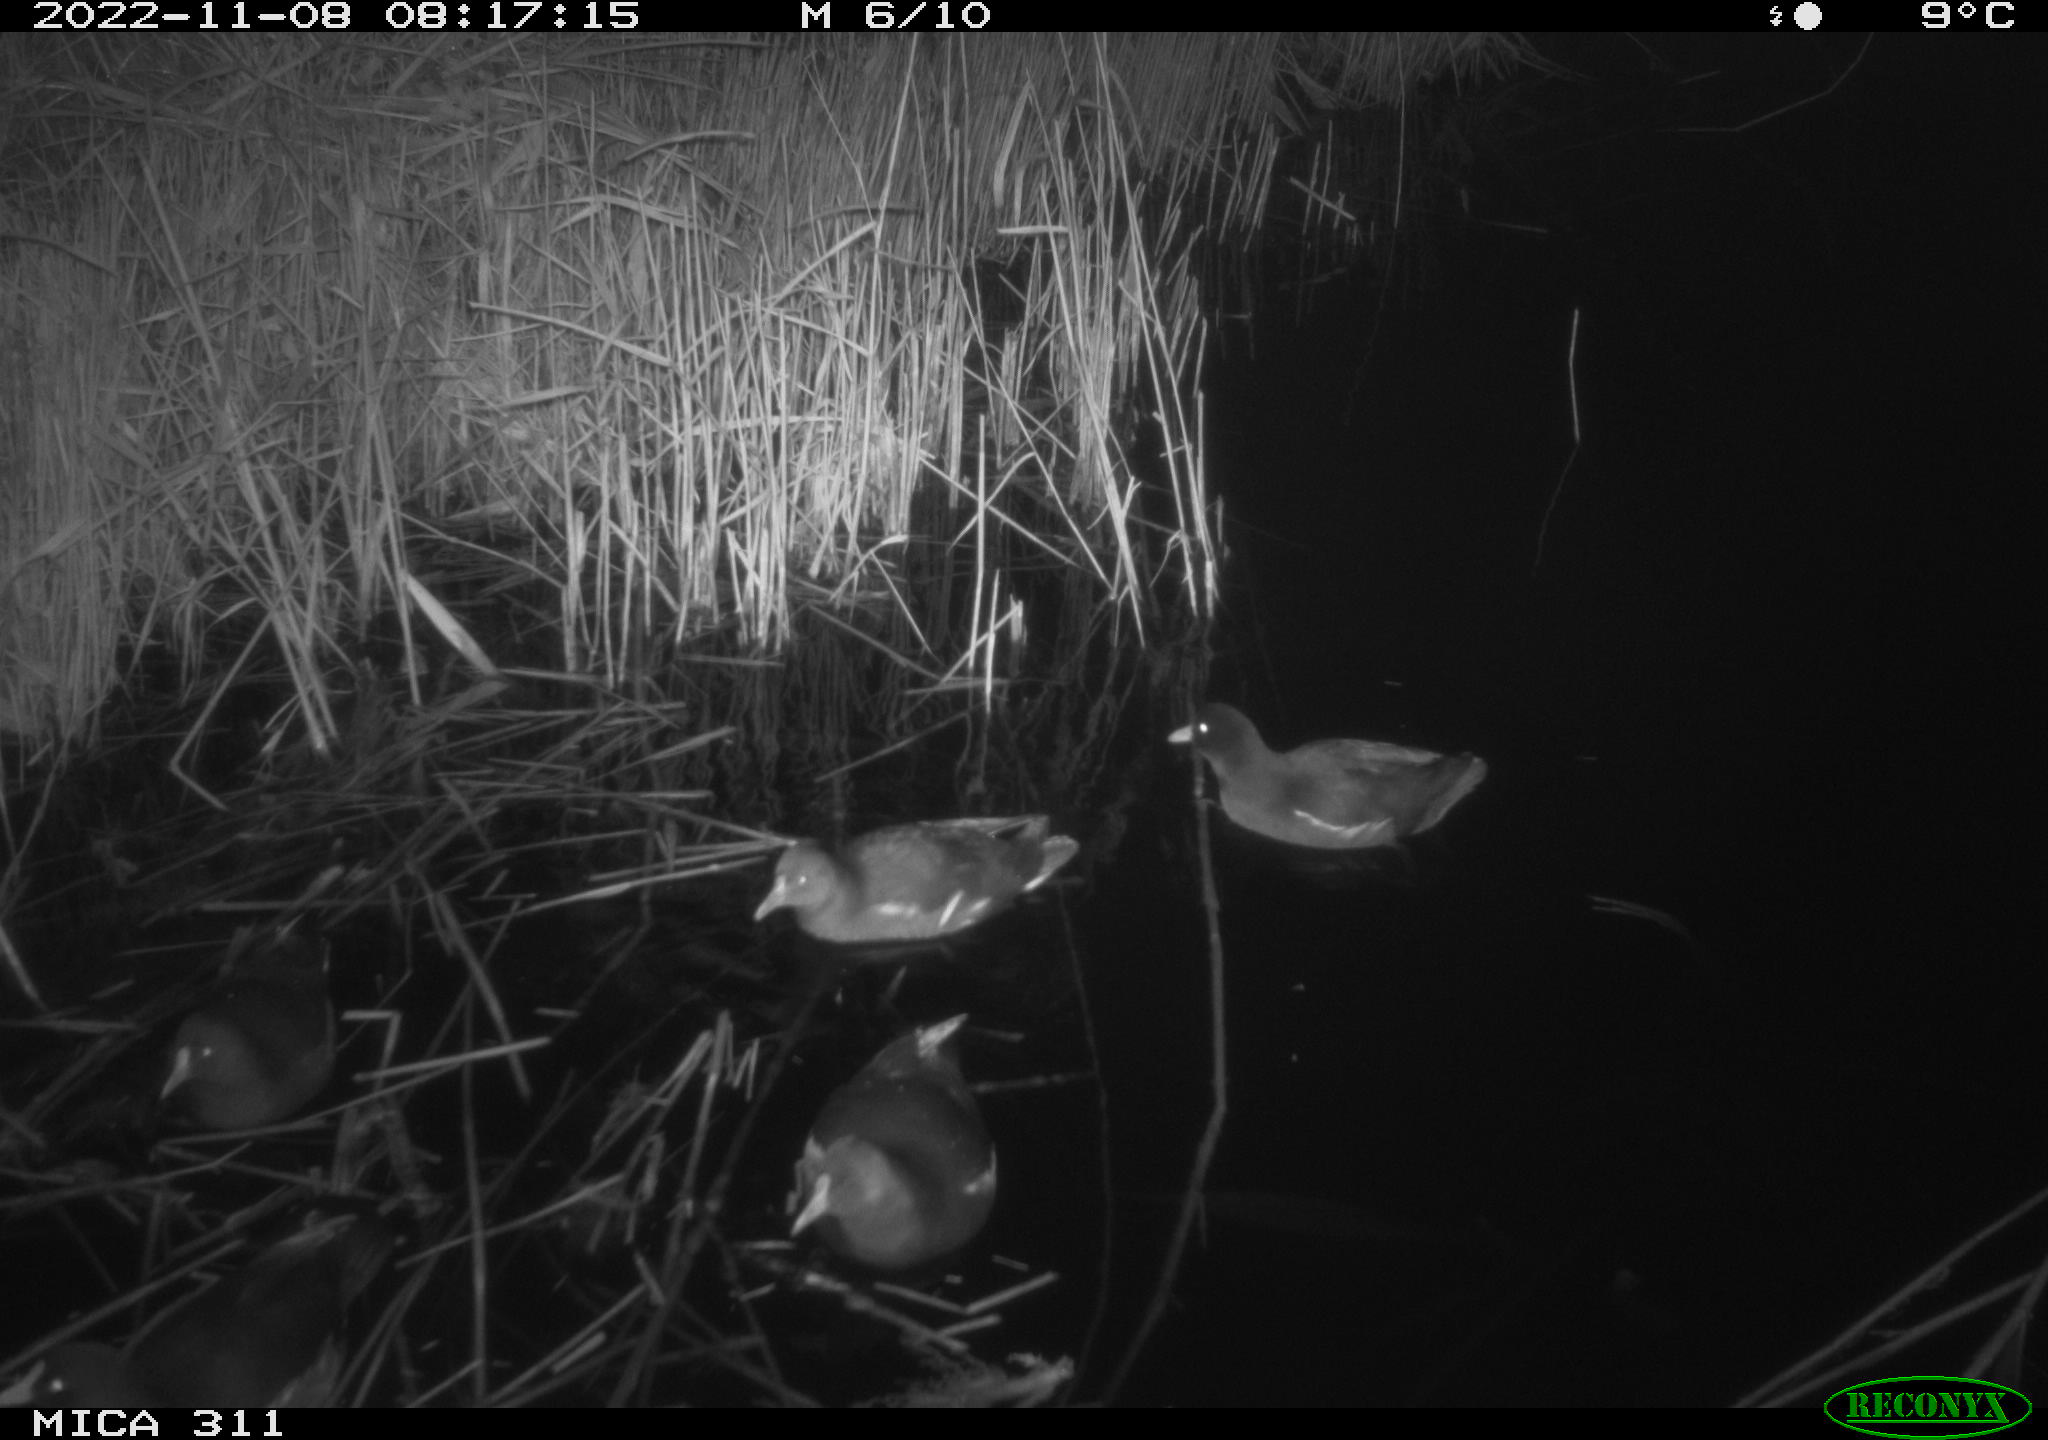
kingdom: Animalia
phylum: Chordata
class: Aves
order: Gruiformes
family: Rallidae
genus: Gallinula
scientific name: Gallinula chloropus
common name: Common moorhen
